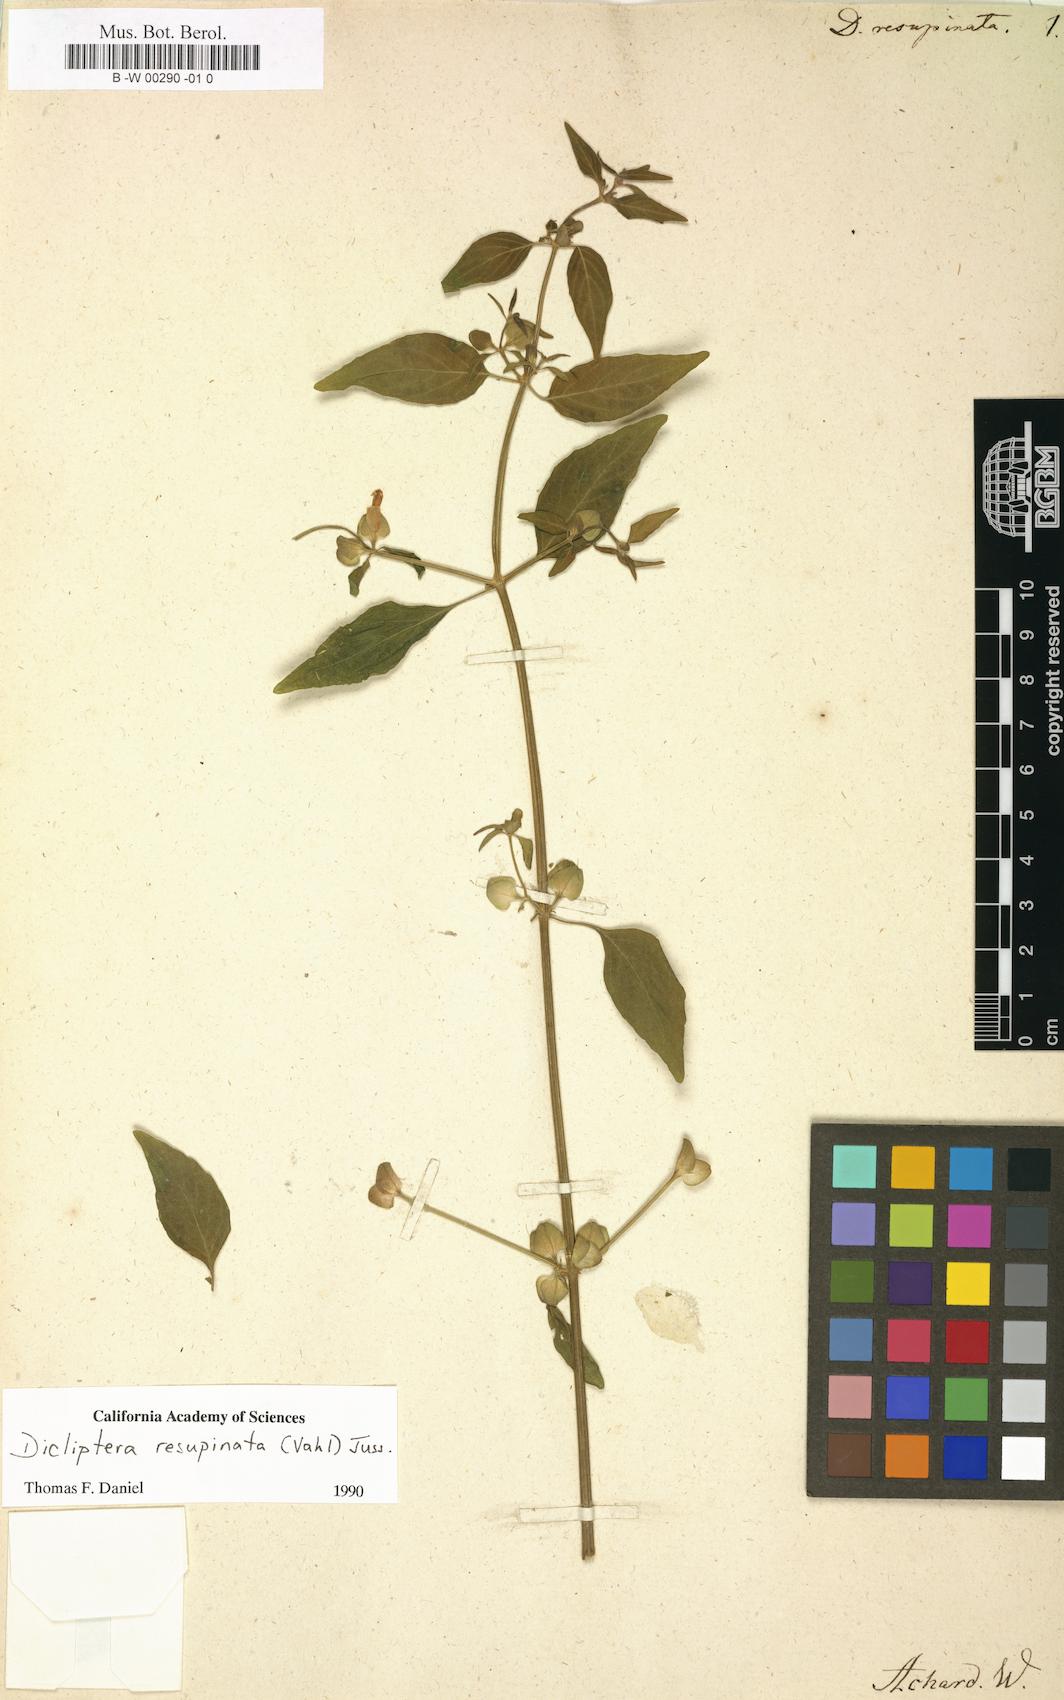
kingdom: Plantae
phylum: Tracheophyta
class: Magnoliopsida
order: Lamiales
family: Acanthaceae
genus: Dicliptera
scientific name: Dicliptera resupinata
